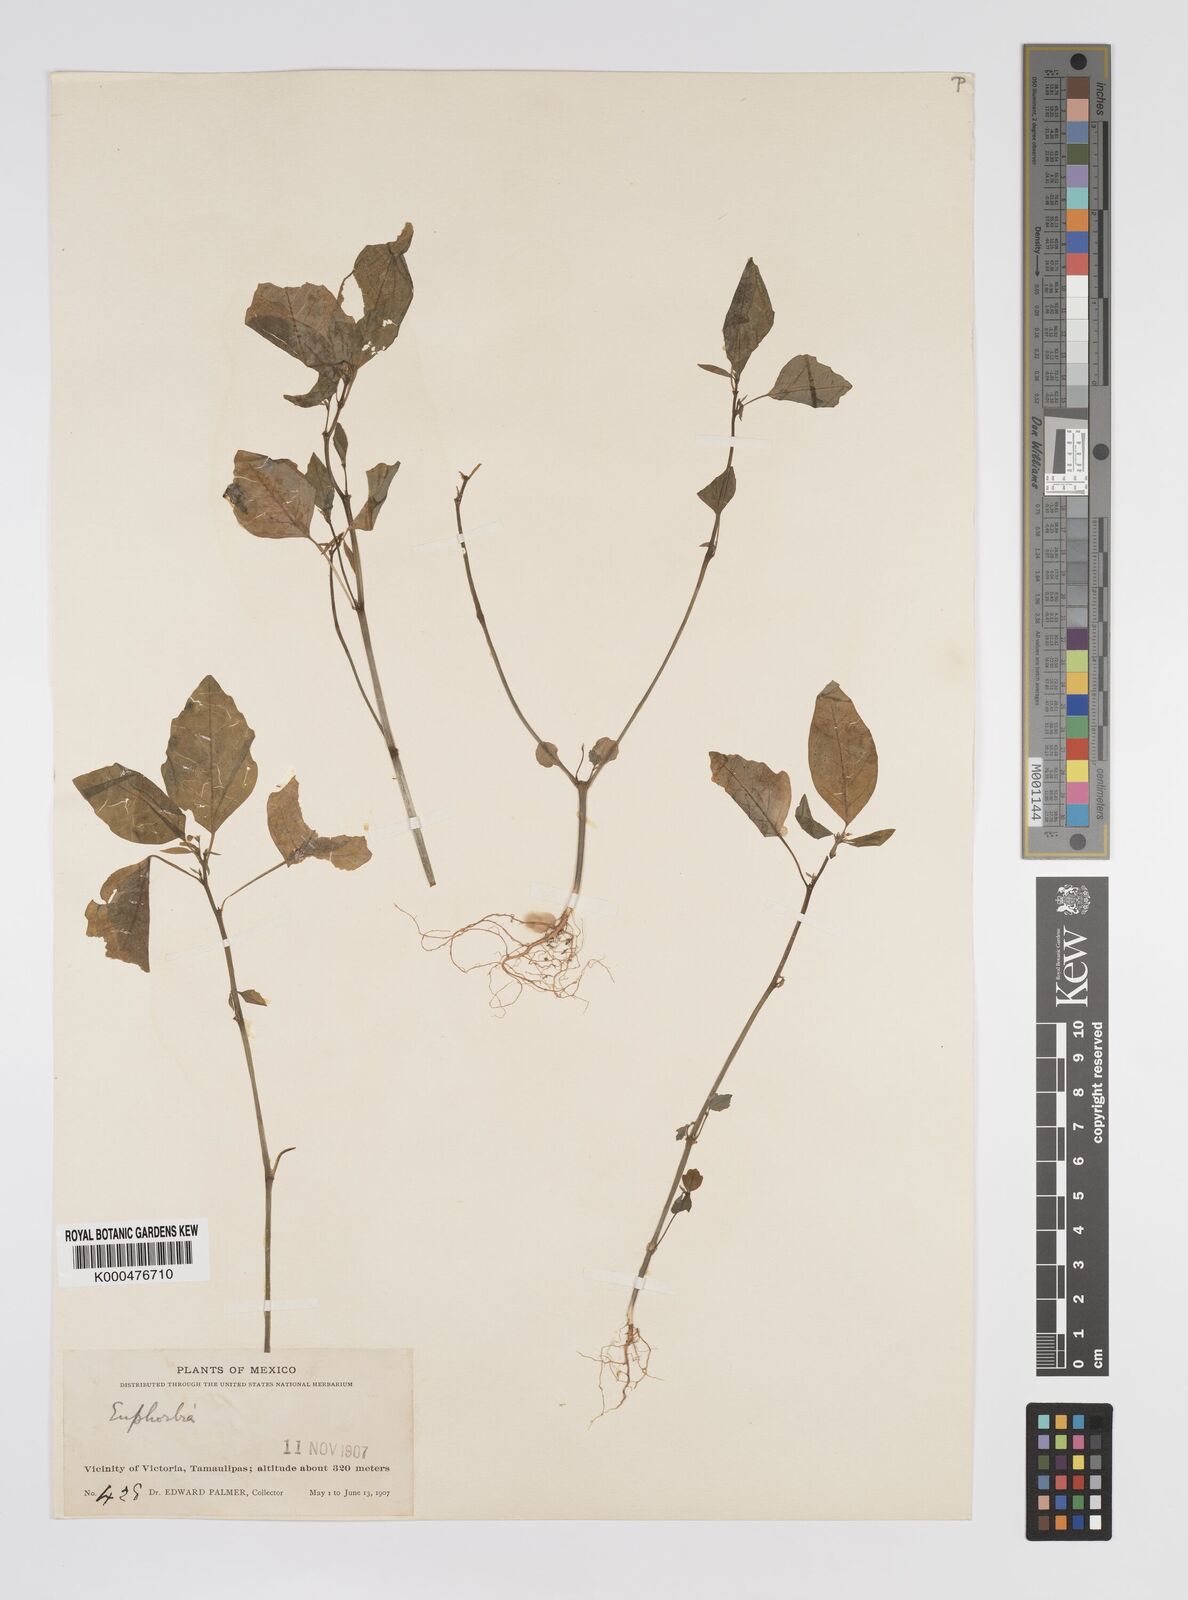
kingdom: Plantae
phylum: Tracheophyta
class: Magnoliopsida
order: Malpighiales
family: Euphorbiaceae
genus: Euphorbia
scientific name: Euphorbia
